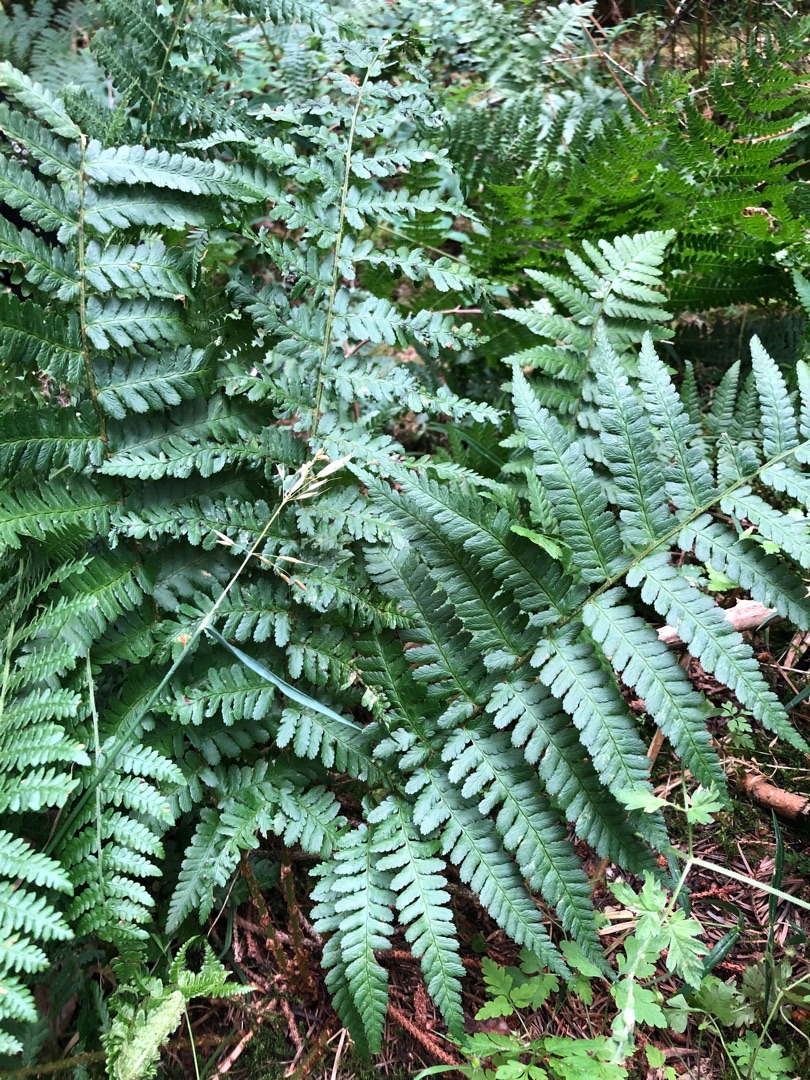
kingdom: Plantae
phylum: Tracheophyta
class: Polypodiopsida
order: Polypodiales
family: Dryopteridaceae
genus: Dryopteris
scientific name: Dryopteris filix-mas
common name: Almindelig mangeløv
